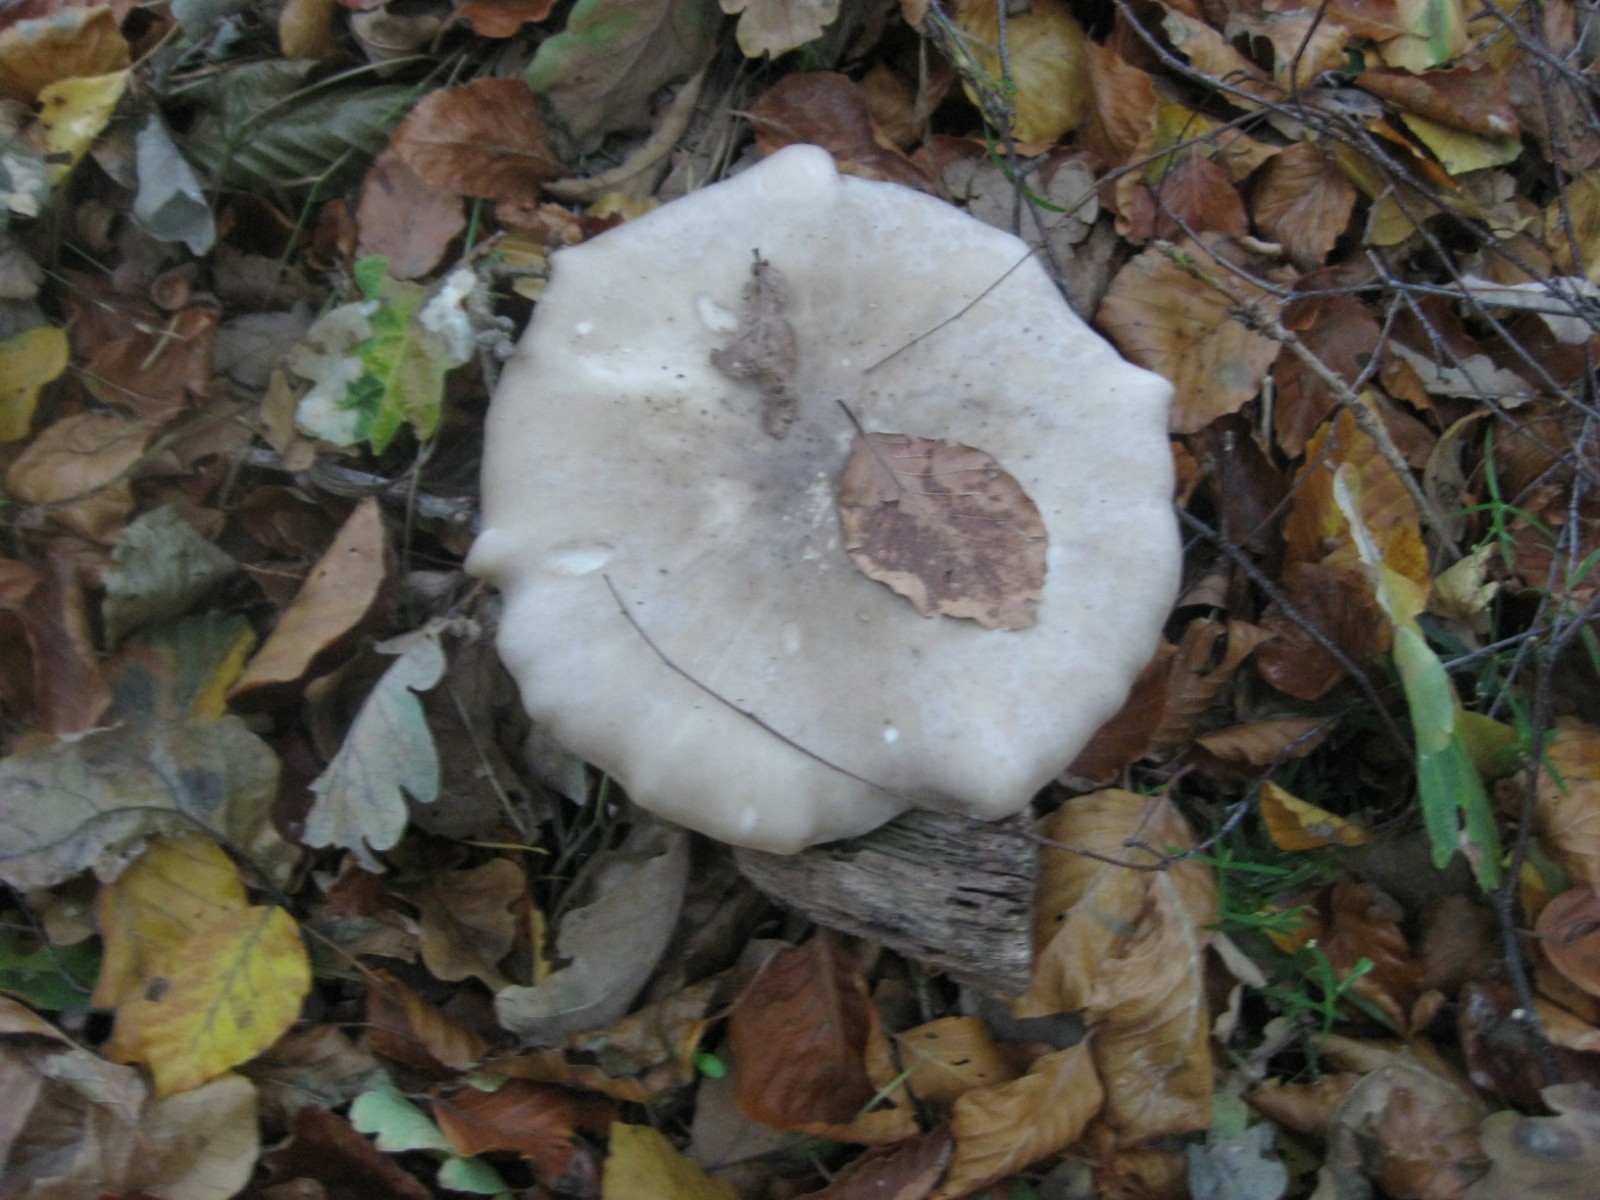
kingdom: Fungi
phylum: Basidiomycota
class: Agaricomycetes
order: Agaricales
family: Tricholomataceae
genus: Clitocybe
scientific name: Clitocybe nebularis
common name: tåge-tragthat
